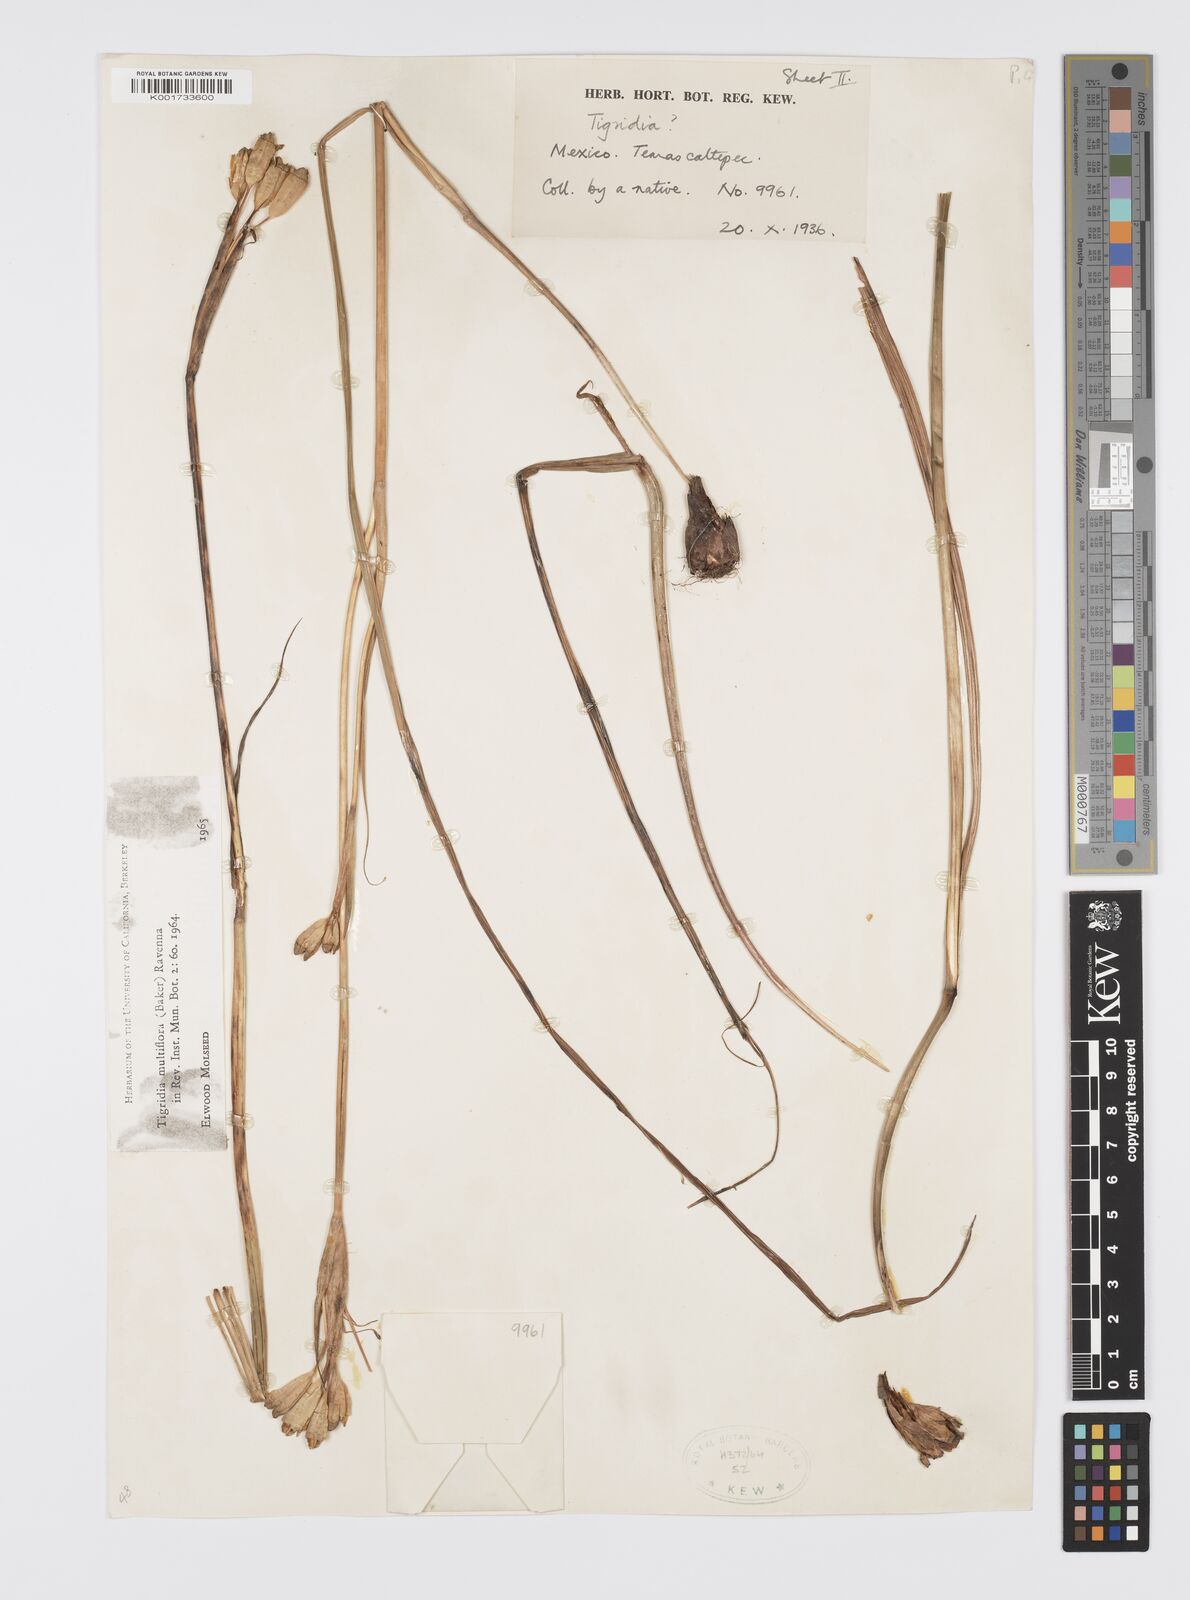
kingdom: Plantae
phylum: Tracheophyta
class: Liliopsida
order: Asparagales
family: Iridaceae
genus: Tigridia
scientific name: Tigridia multiflora
